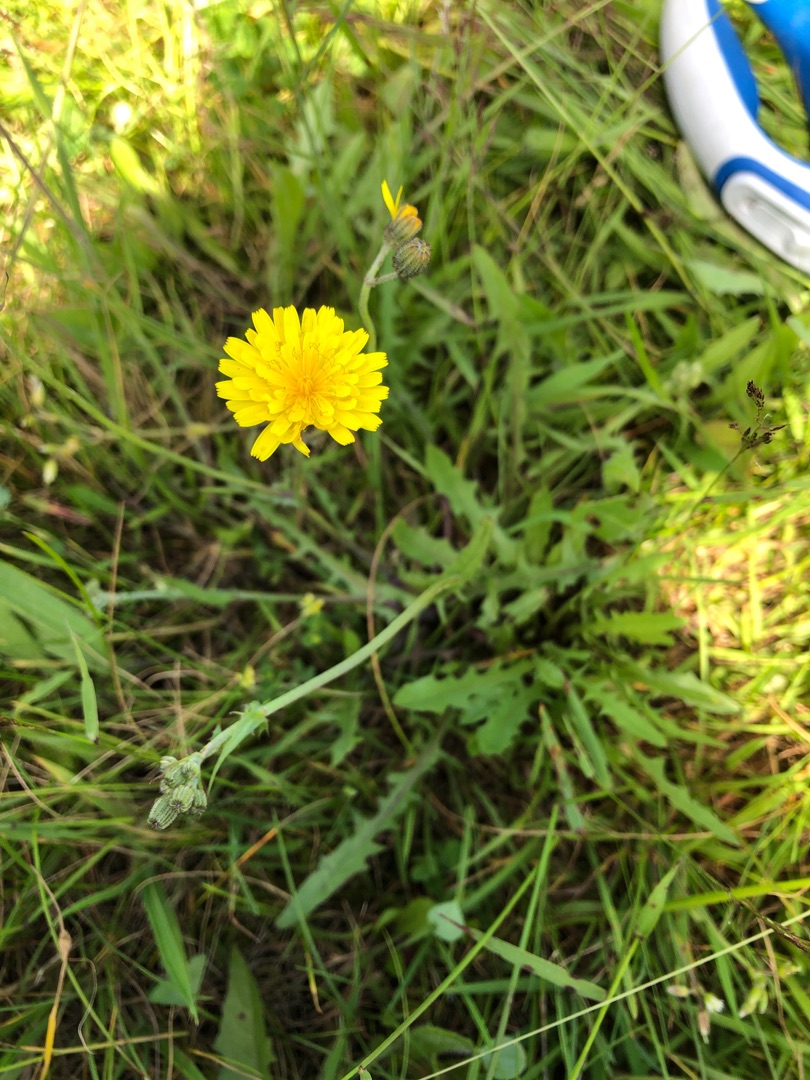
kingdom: Plantae
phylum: Tracheophyta
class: Magnoliopsida
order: Asterales
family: Asteraceae
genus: Crepis
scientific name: Crepis capillaris
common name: Grøn høgeskæg
